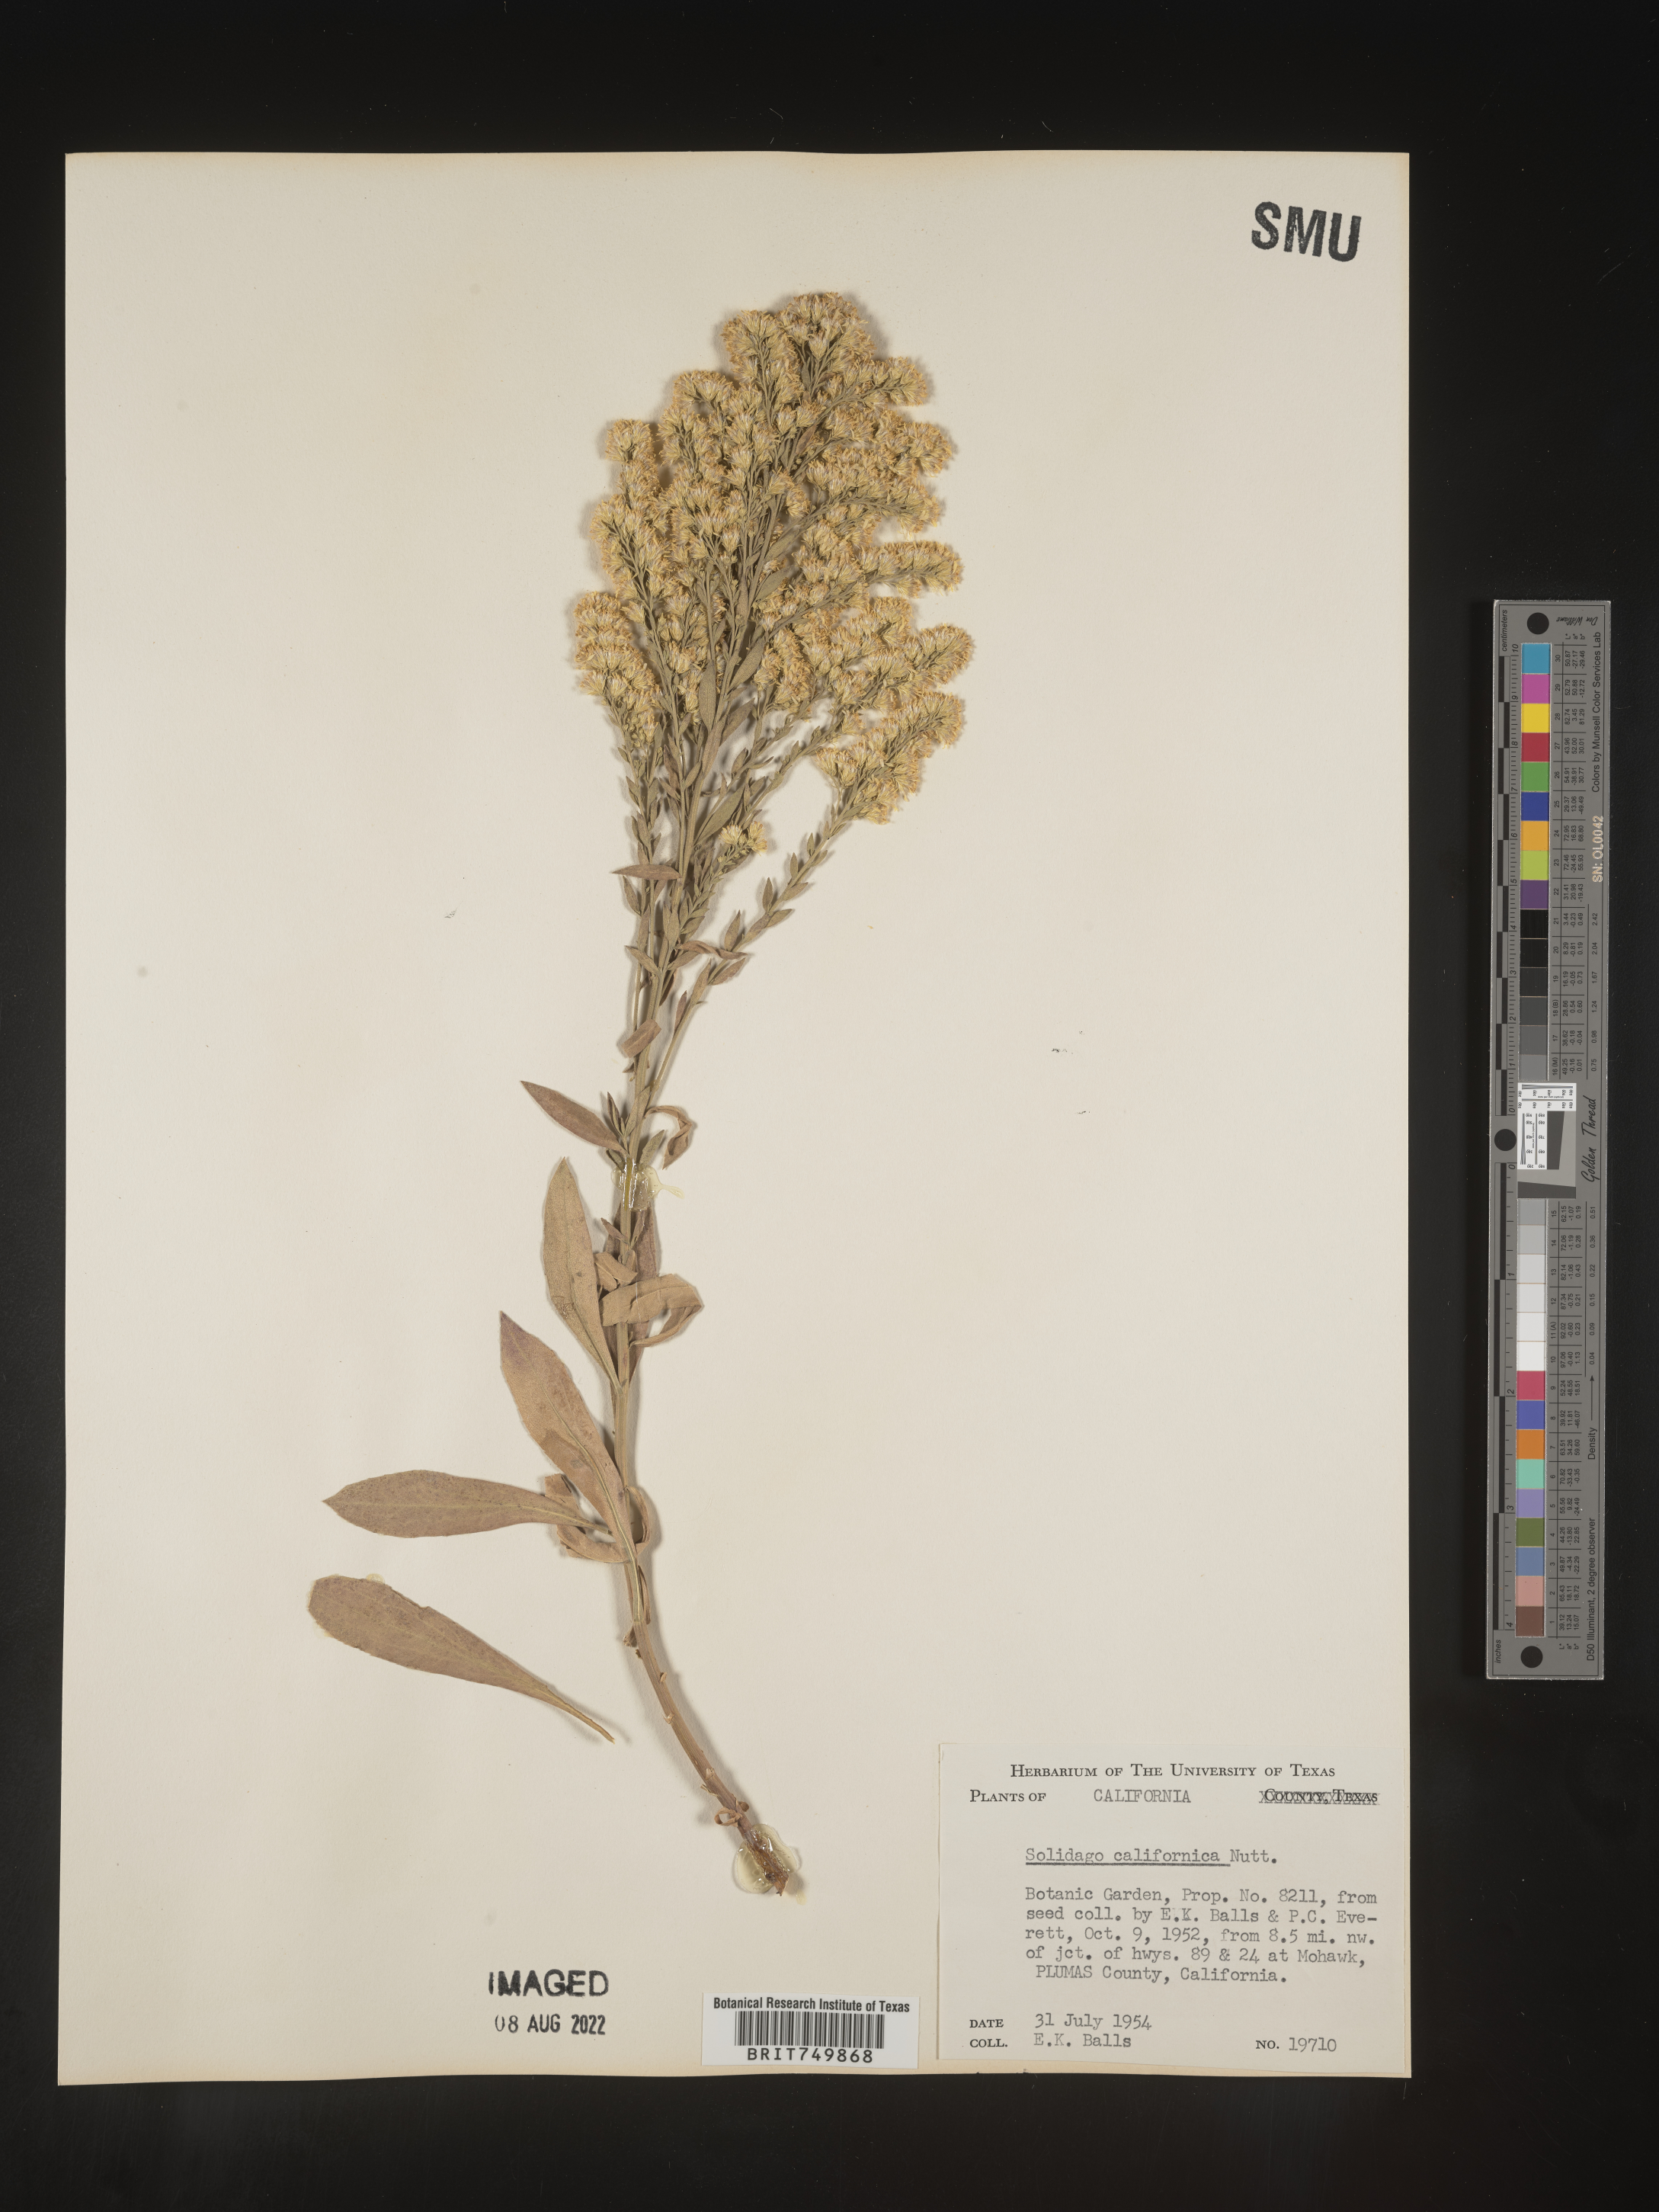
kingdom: Plantae
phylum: Tracheophyta
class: Magnoliopsida
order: Asterales
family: Asteraceae
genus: Solidago
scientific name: Solidago californica
